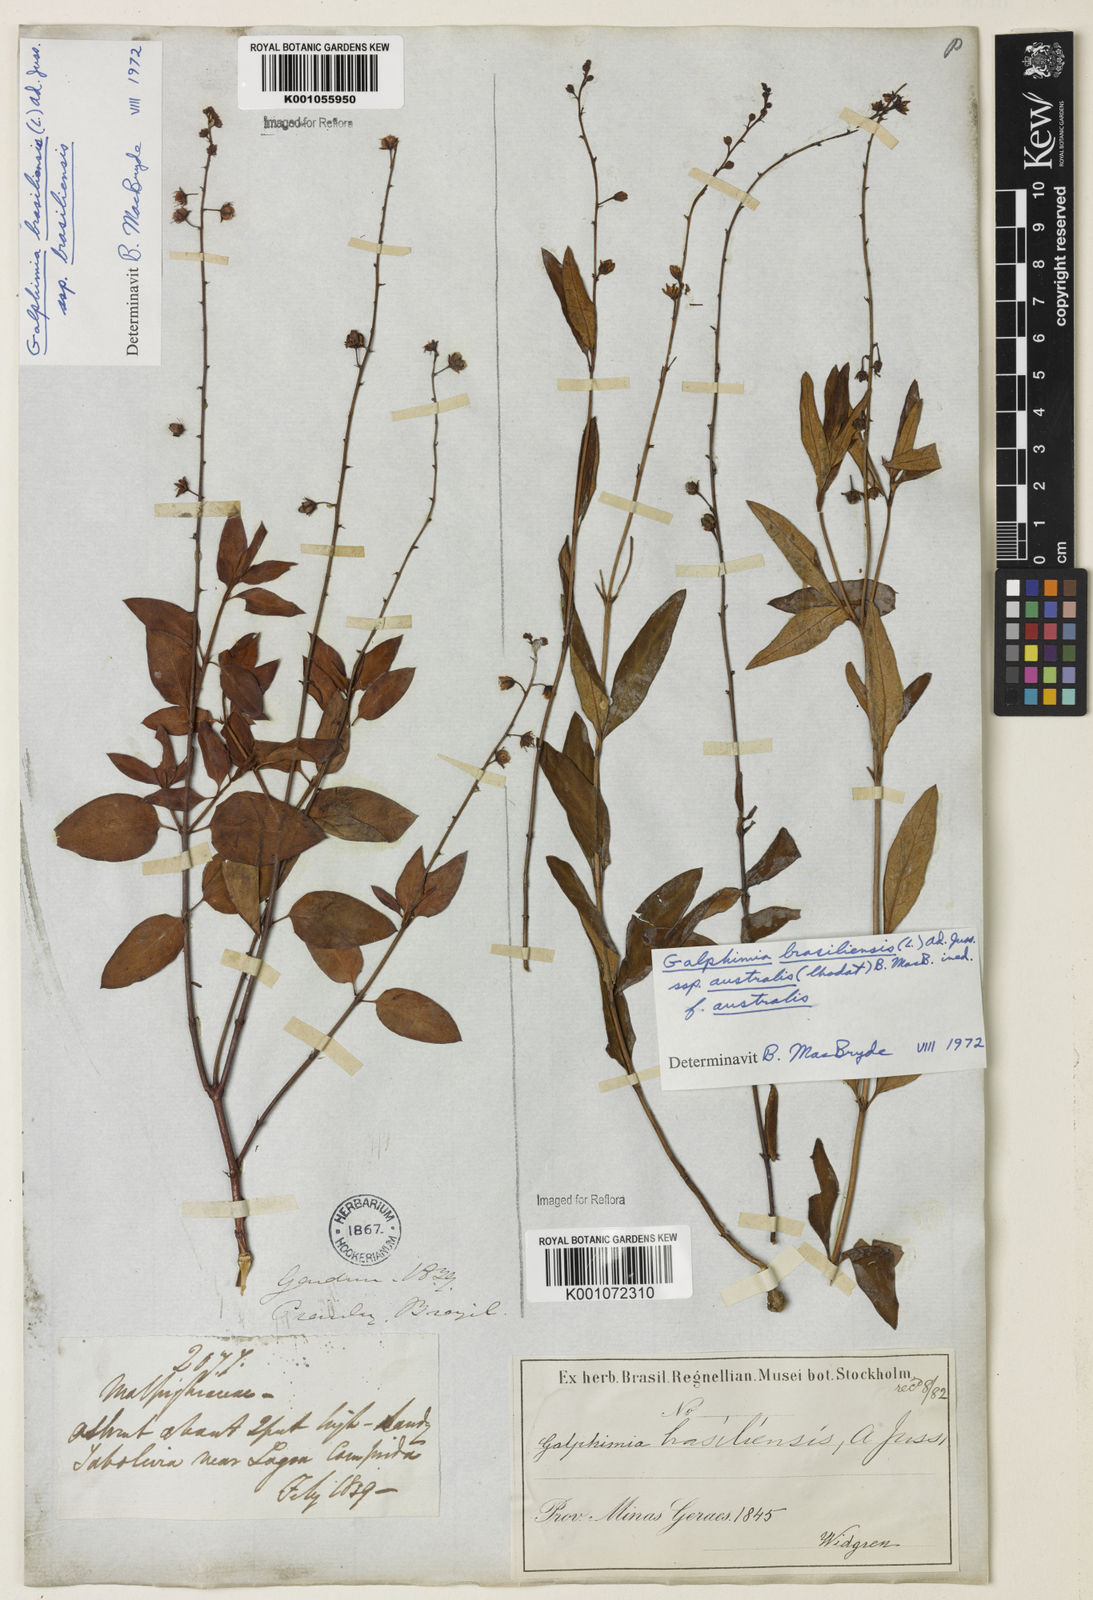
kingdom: Plantae
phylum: Tracheophyta
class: Magnoliopsida
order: Malpighiales
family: Malpighiaceae
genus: Galphimia
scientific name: Galphimia brasiliensis
